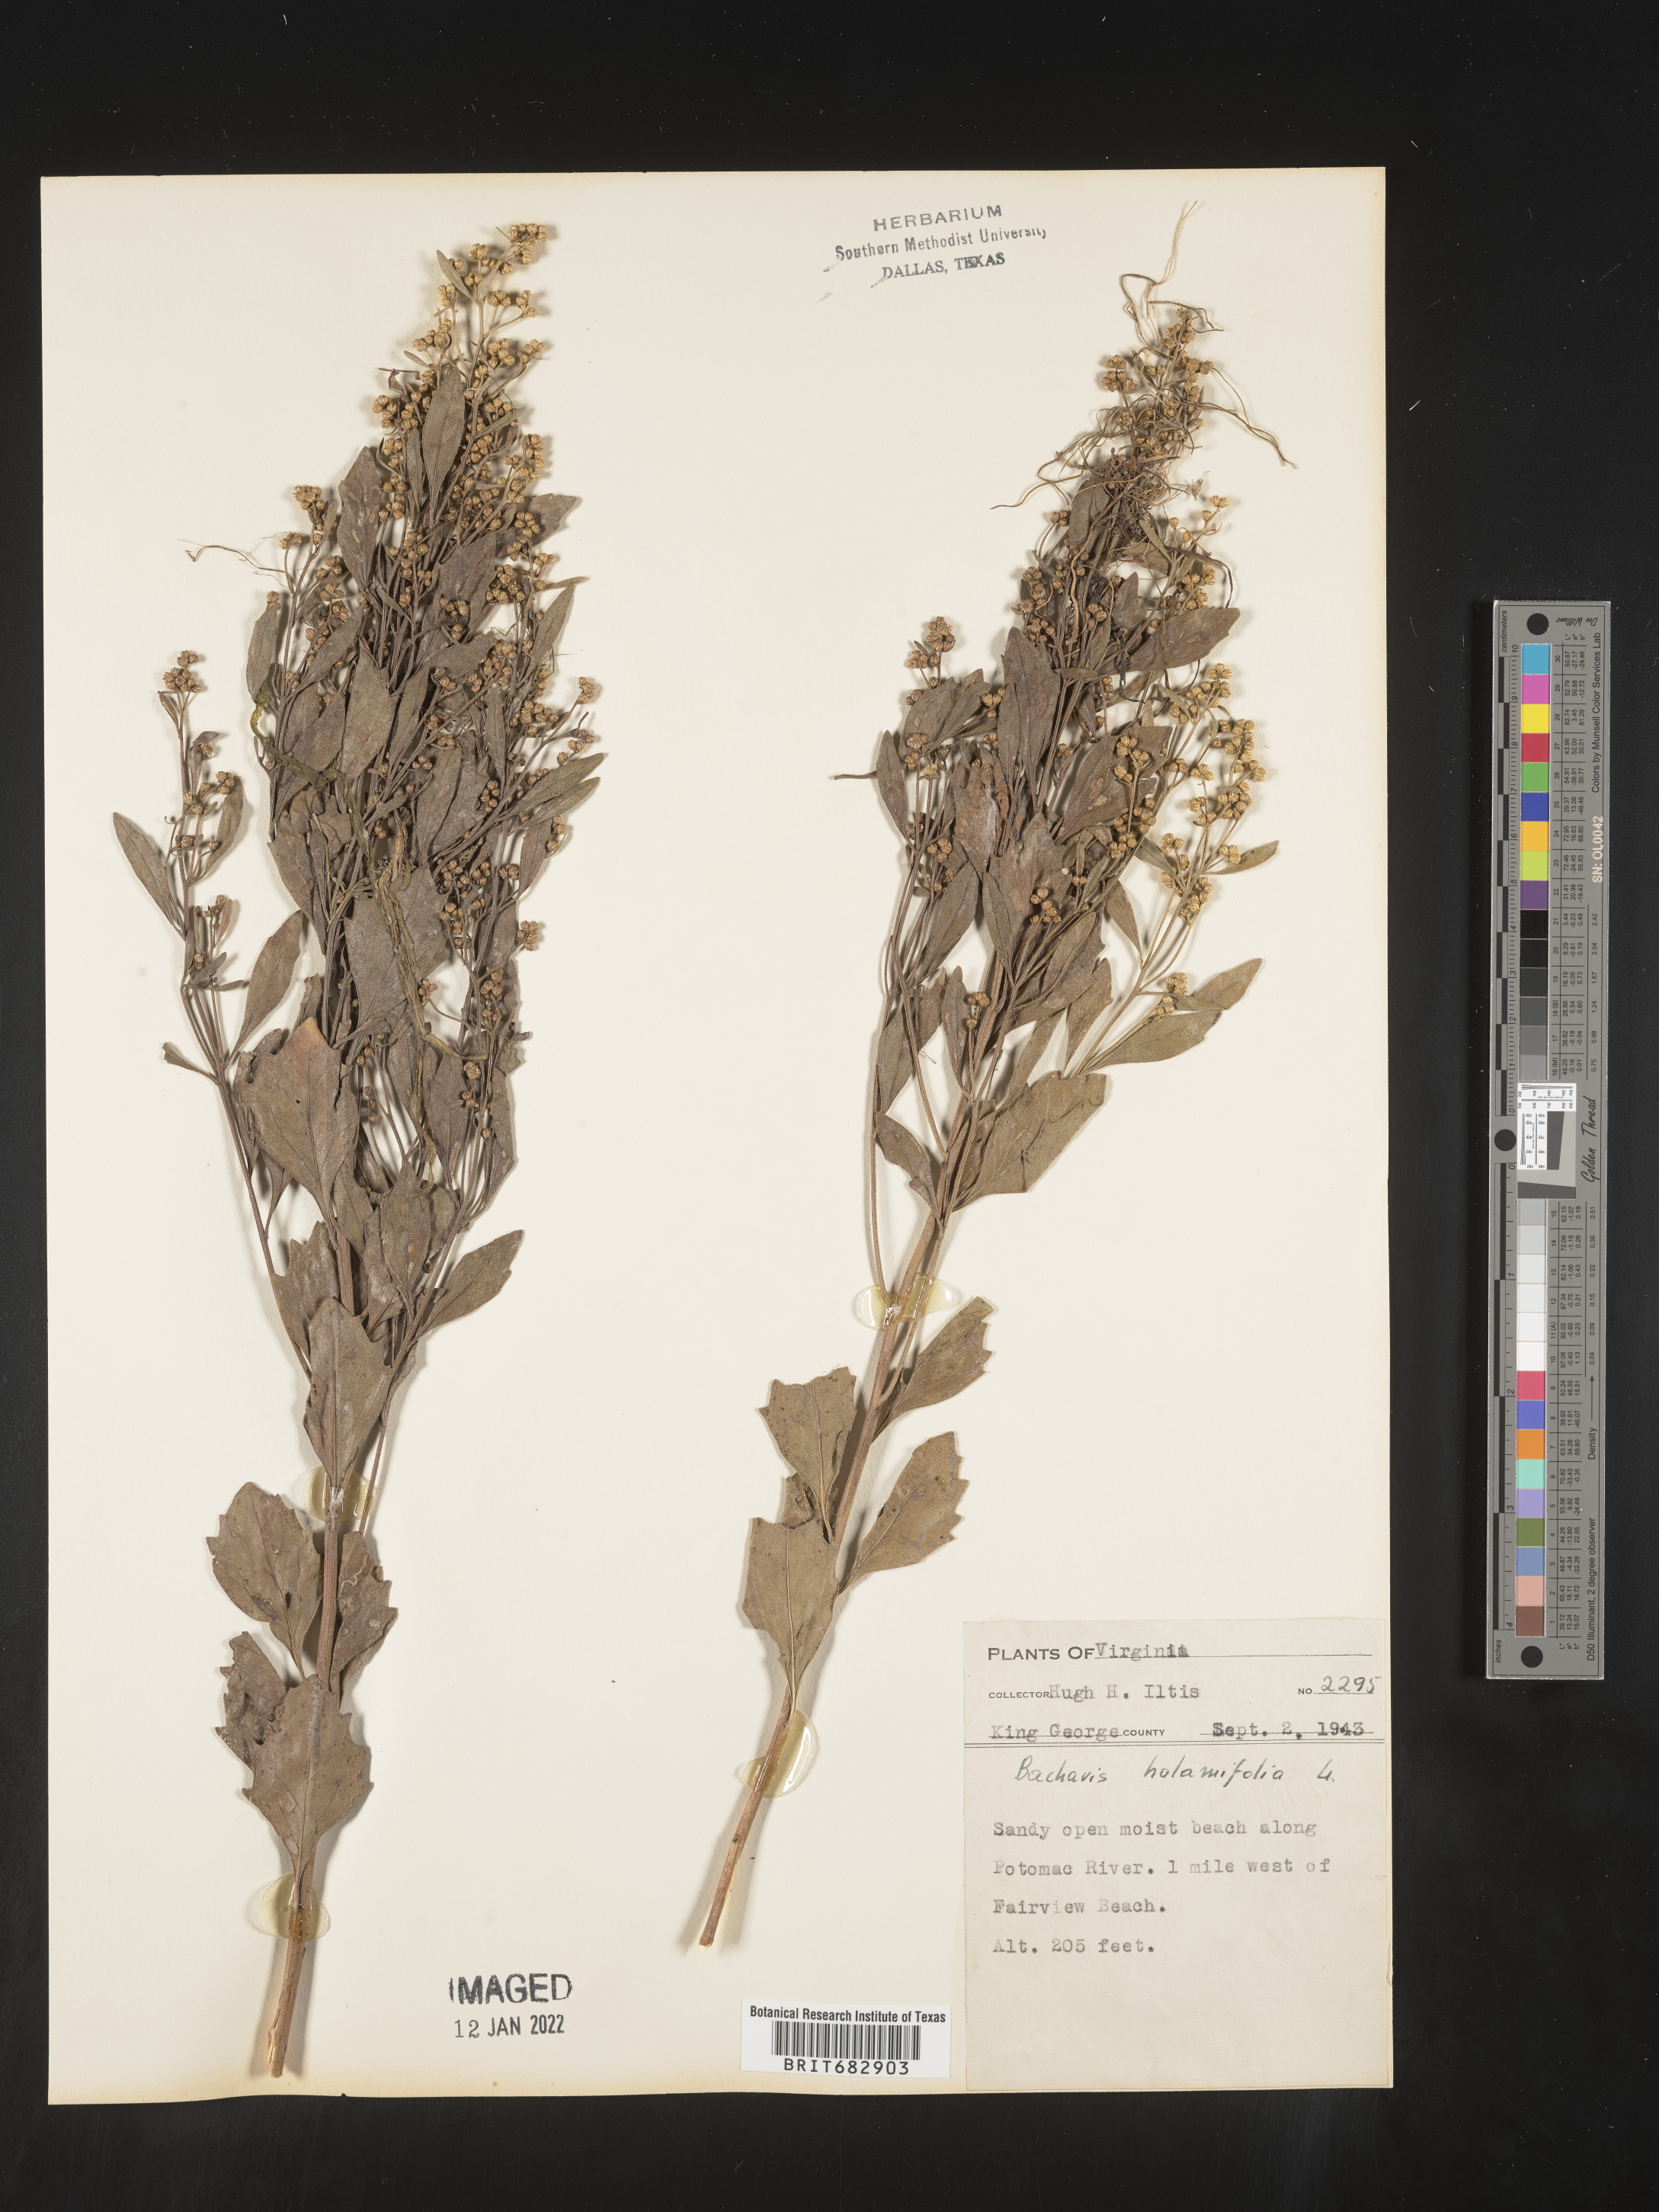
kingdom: Plantae
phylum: Tracheophyta
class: Magnoliopsida
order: Asterales
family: Asteraceae
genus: Nidorella
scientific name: Nidorella ivifolia
